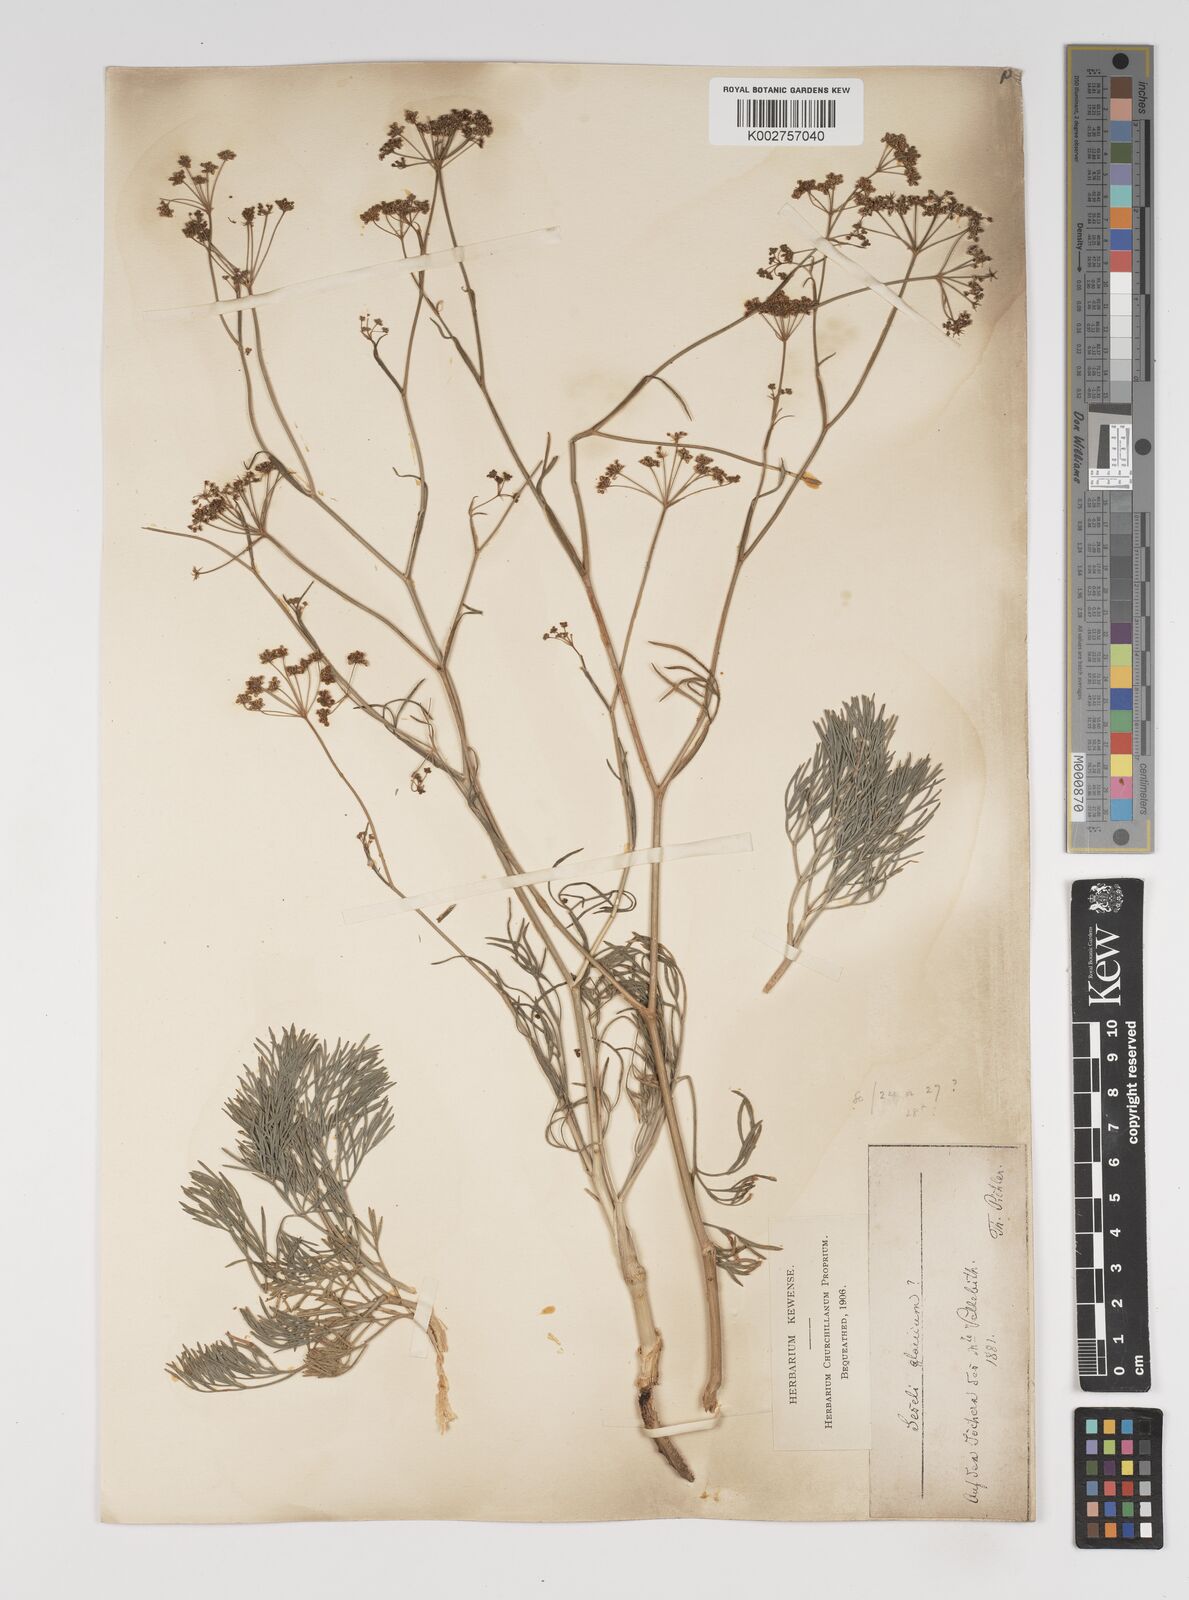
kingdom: Plantae
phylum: Tracheophyta
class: Magnoliopsida
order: Apiales
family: Apiaceae
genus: Seseli
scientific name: Seseli montanum
